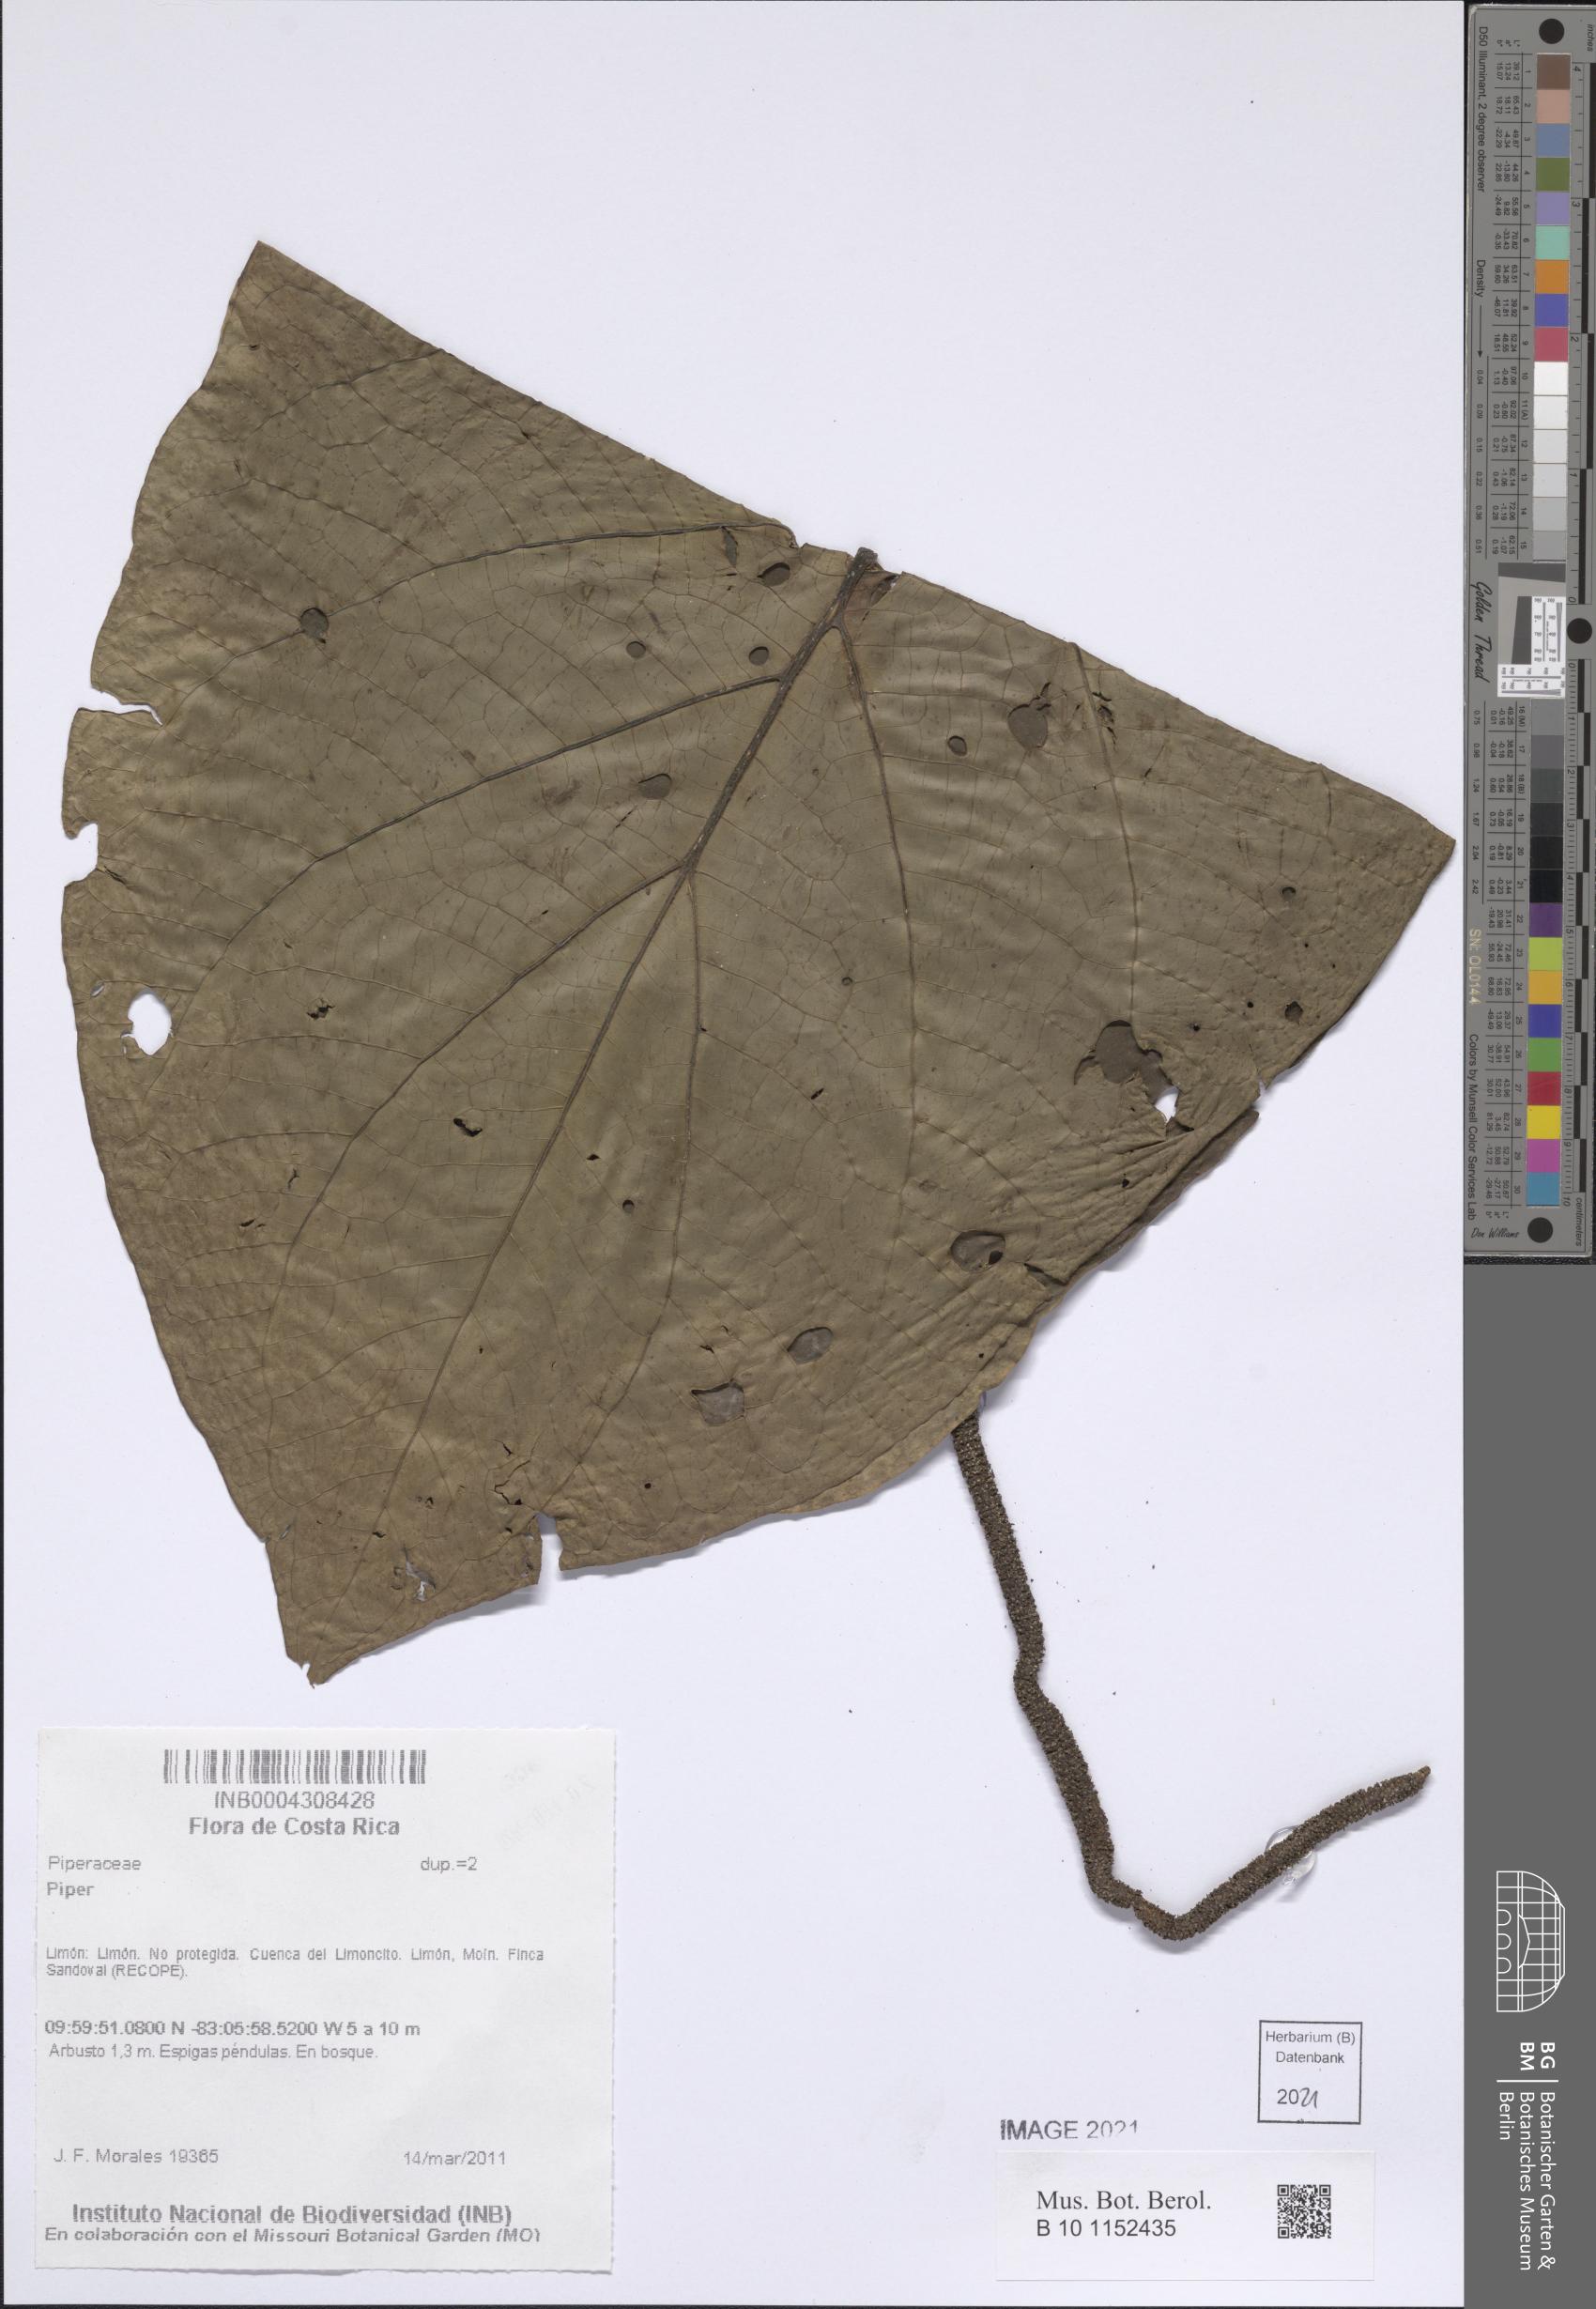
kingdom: Plantae
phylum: Tracheophyta
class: Magnoliopsida
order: Piperales
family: Piperaceae
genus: Piper
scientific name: Piper
